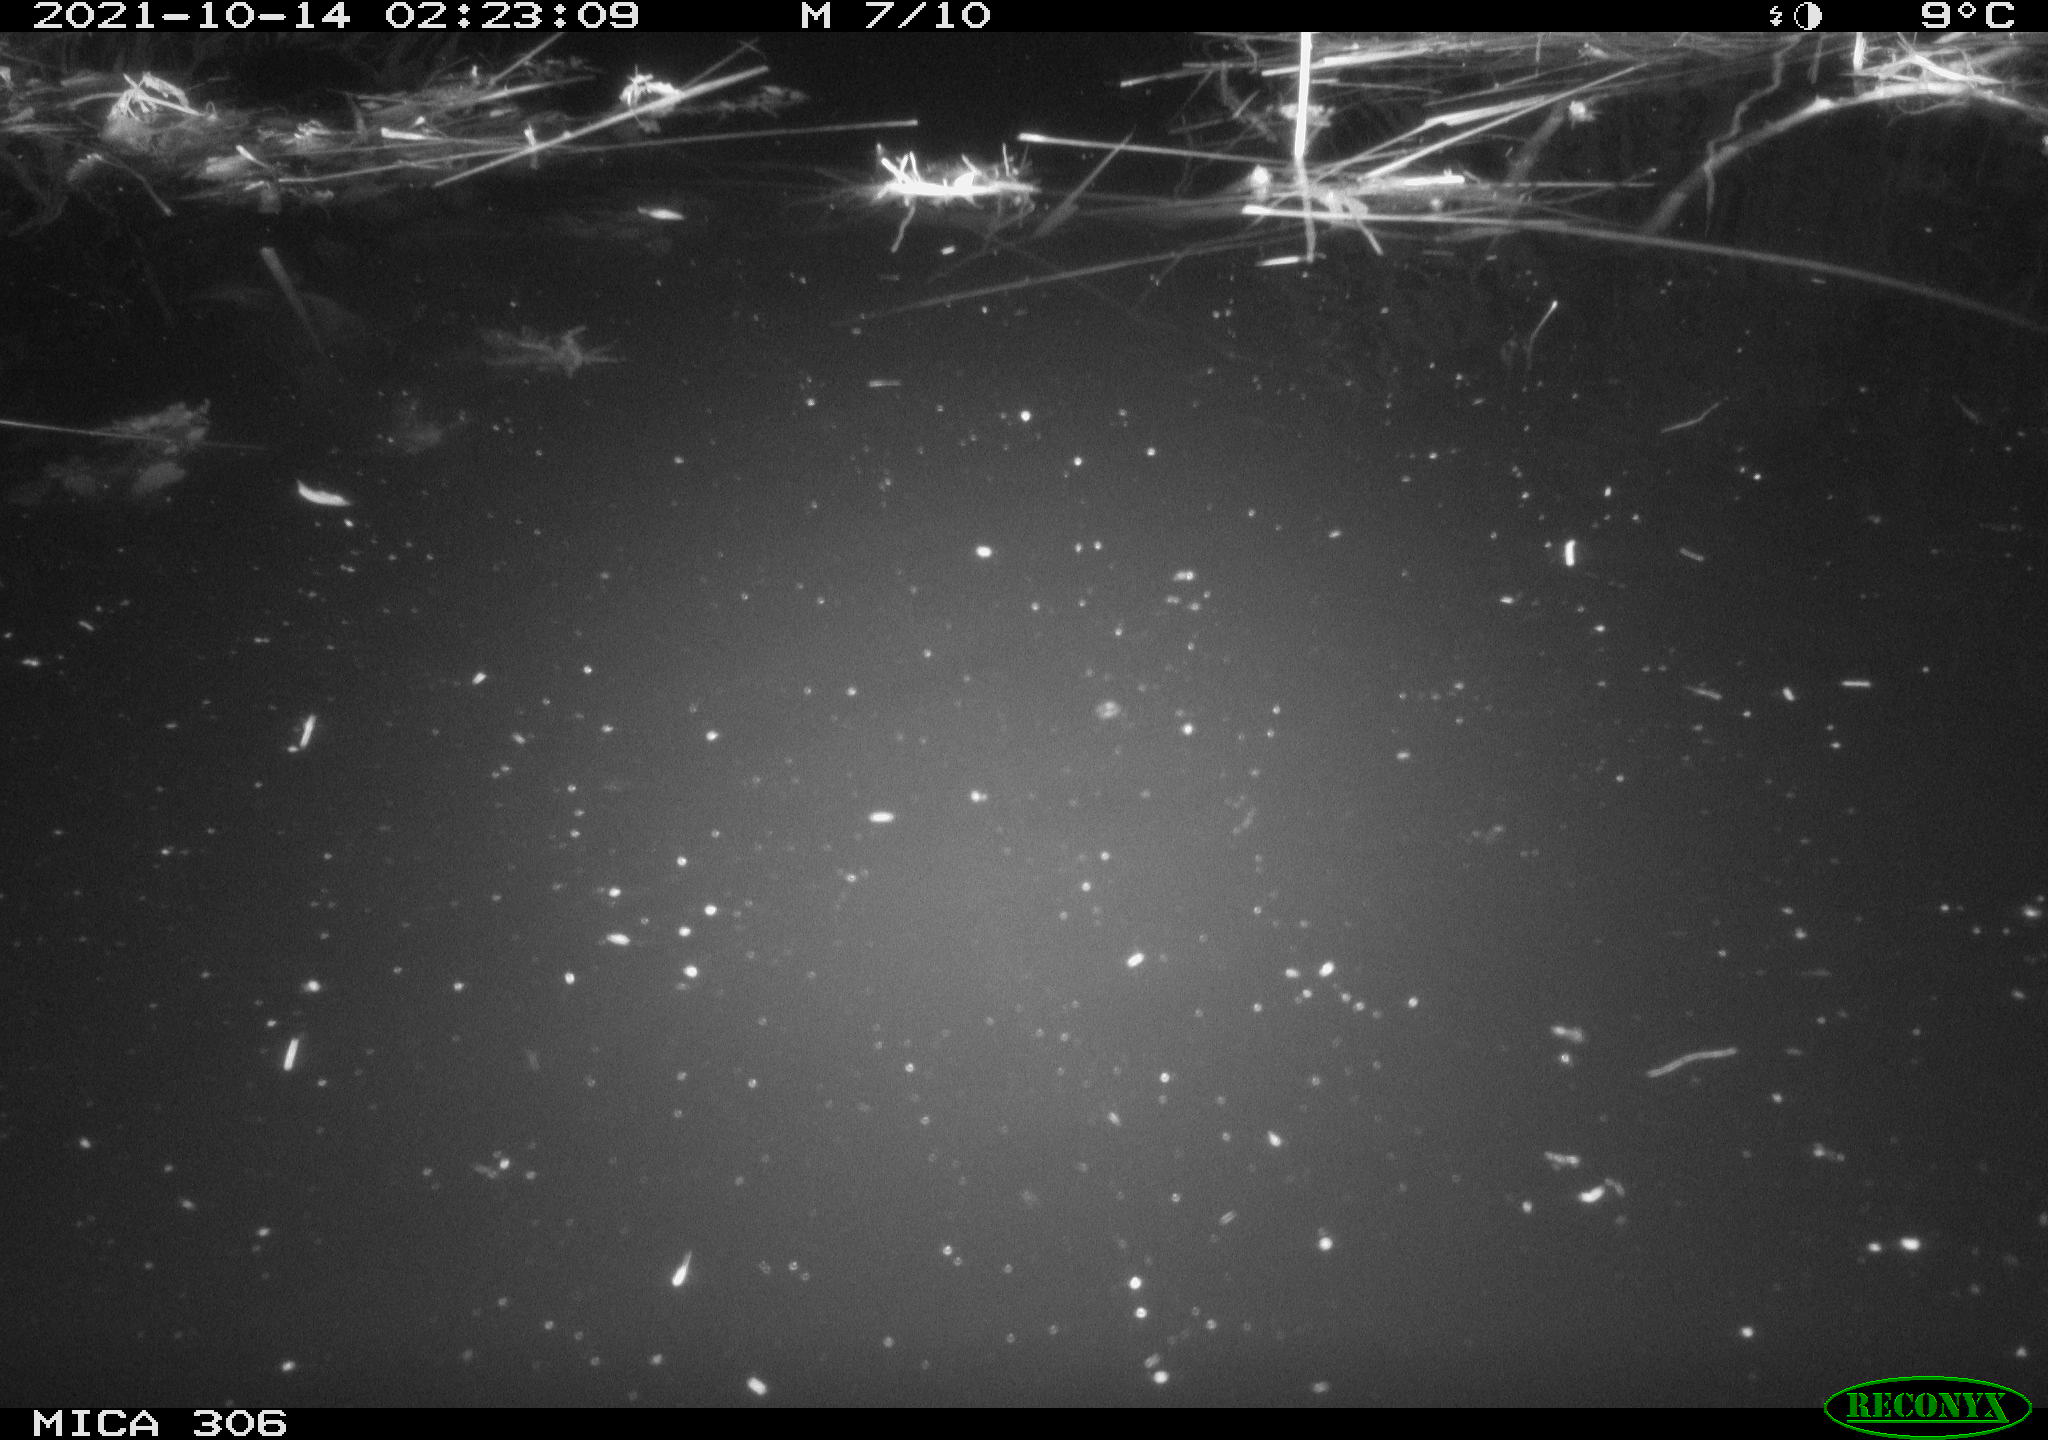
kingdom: Animalia
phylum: Chordata
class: Mammalia
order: Rodentia
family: Cricetidae
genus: Ondatra
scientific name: Ondatra zibethicus
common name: Muskrat
